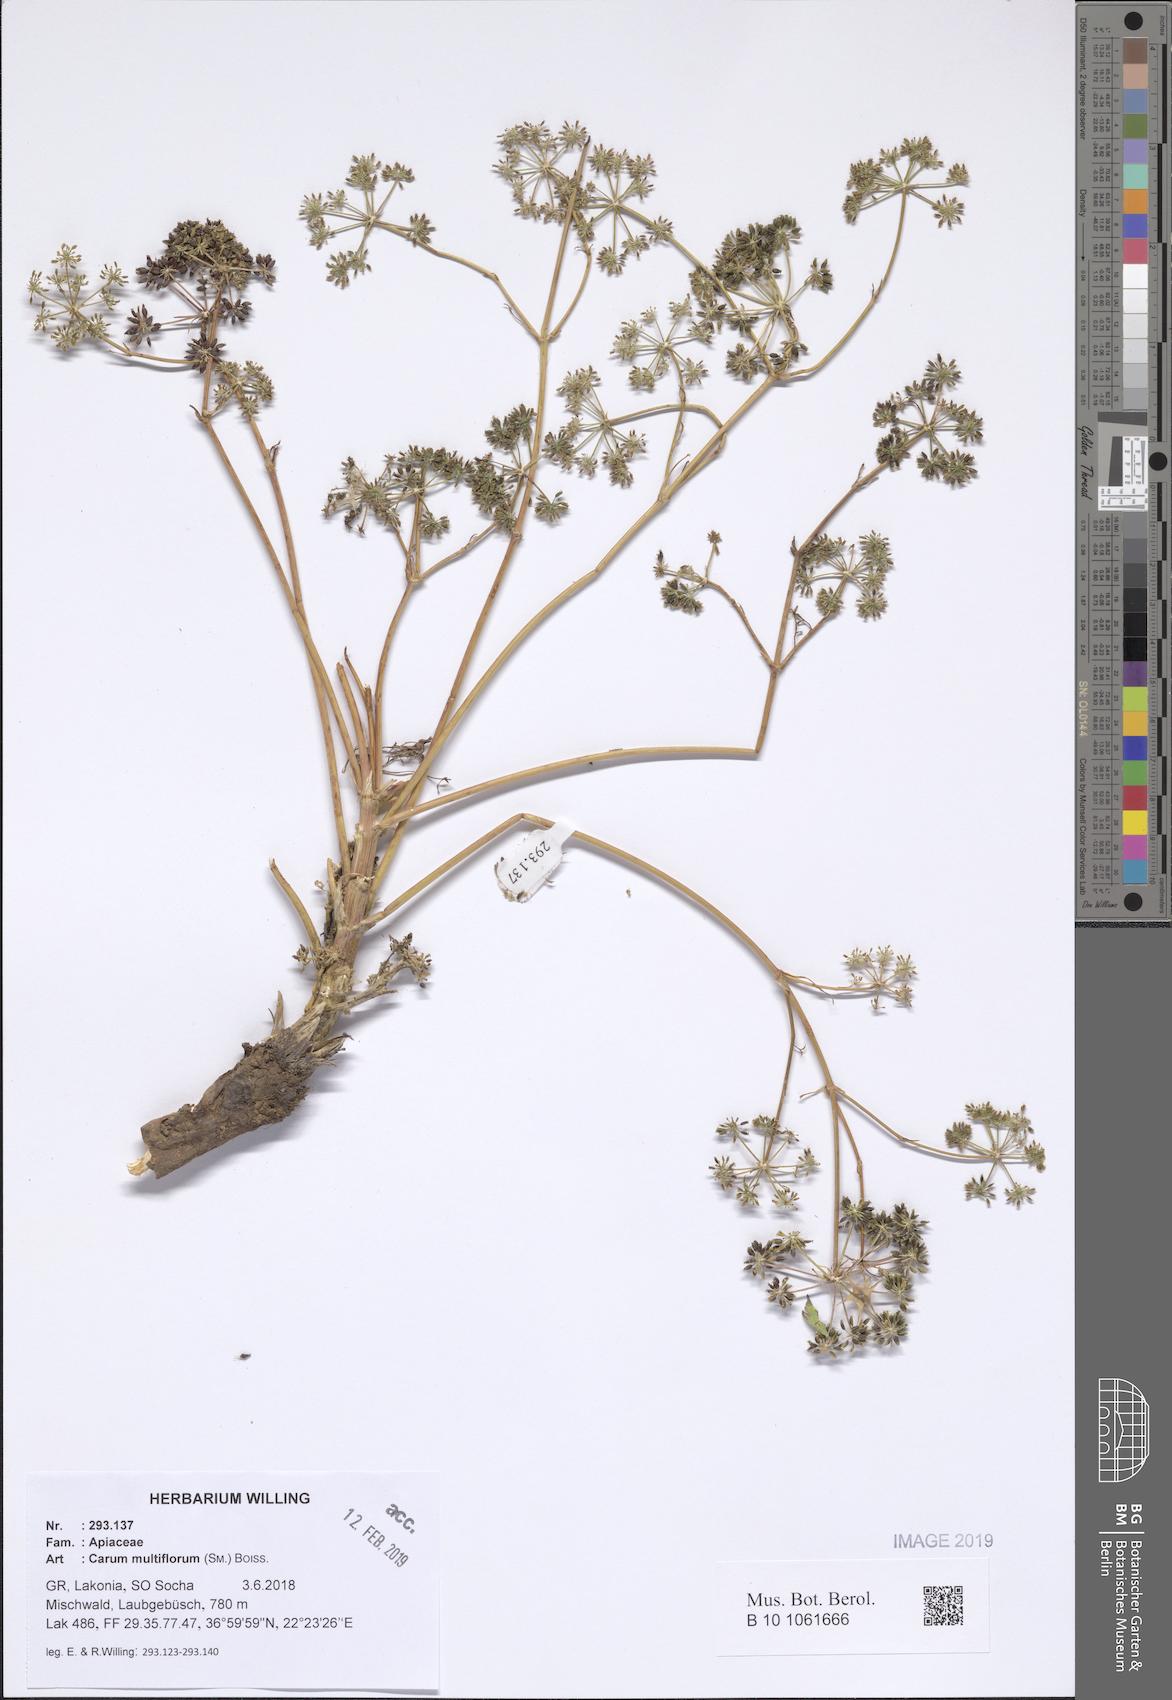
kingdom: Plantae
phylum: Tracheophyta
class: Magnoliopsida
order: Apiales
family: Apiaceae
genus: Hellenocarum
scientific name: Hellenocarum multiflorum
